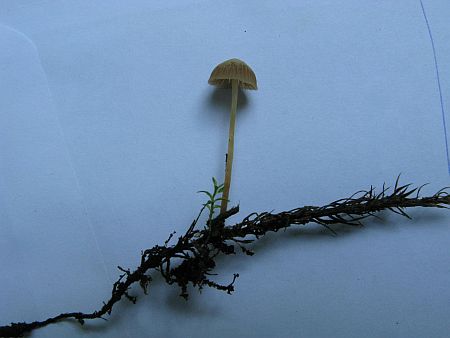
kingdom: Fungi
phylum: Basidiomycota
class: Agaricomycetes
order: Agaricales
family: Hymenogastraceae
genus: Galerina
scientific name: Galerina hypnorum
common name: mos-hjelmhat
